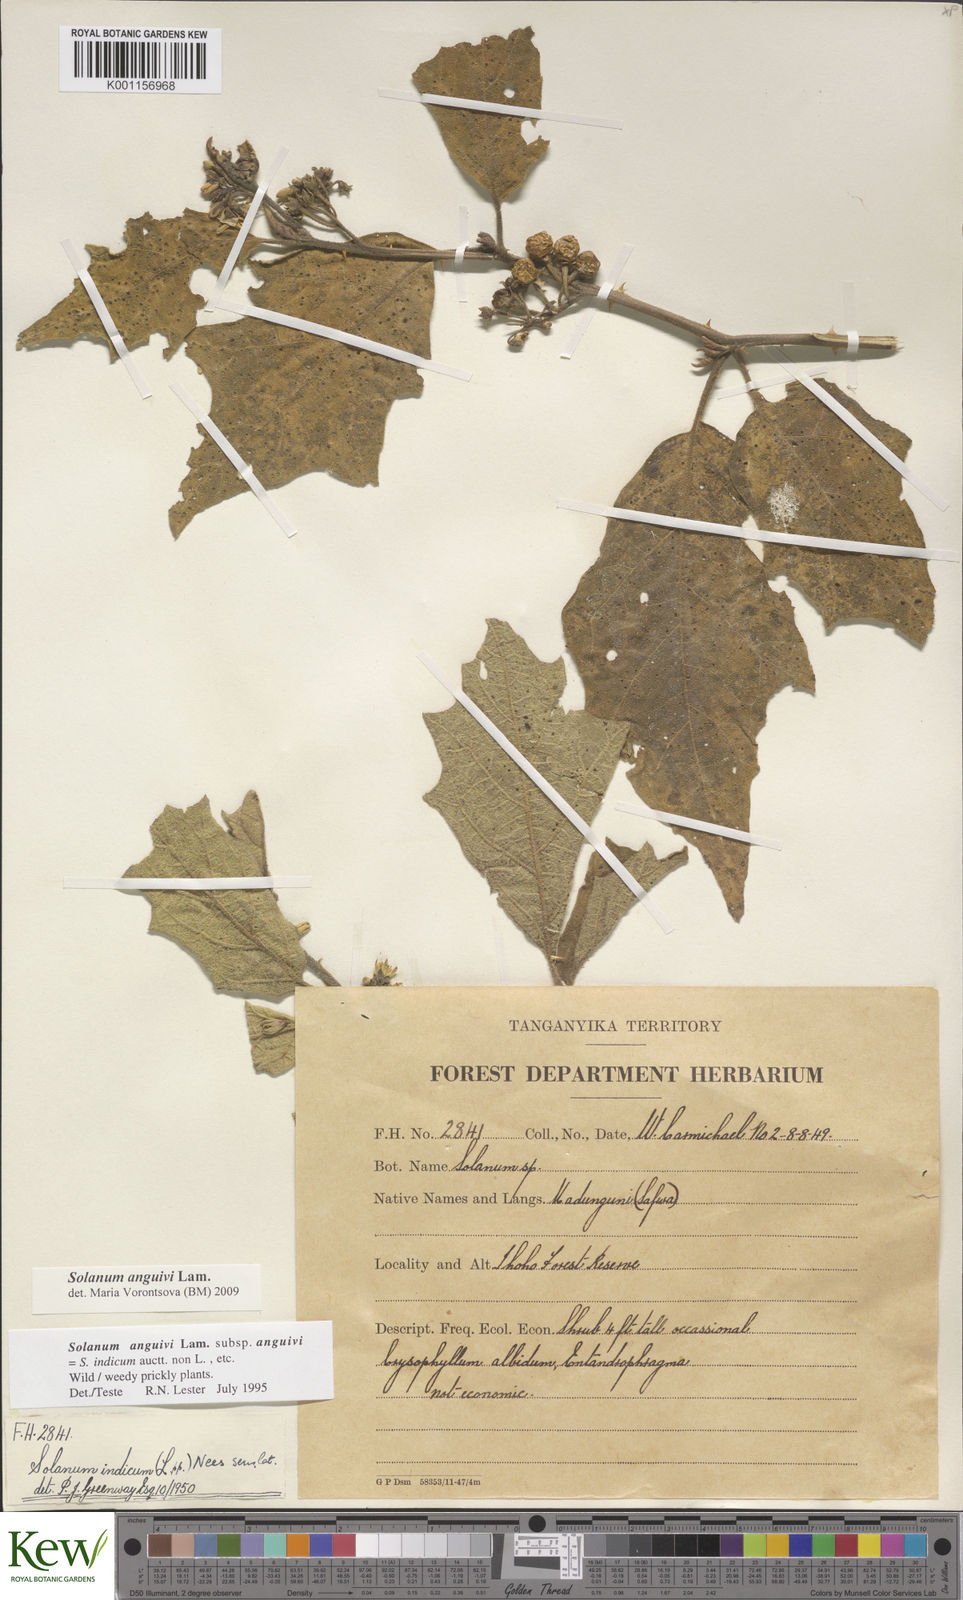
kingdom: Plantae
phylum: Tracheophyta
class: Magnoliopsida
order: Solanales
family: Solanaceae
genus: Solanum
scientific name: Solanum anguivi
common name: Forest bitterberry
